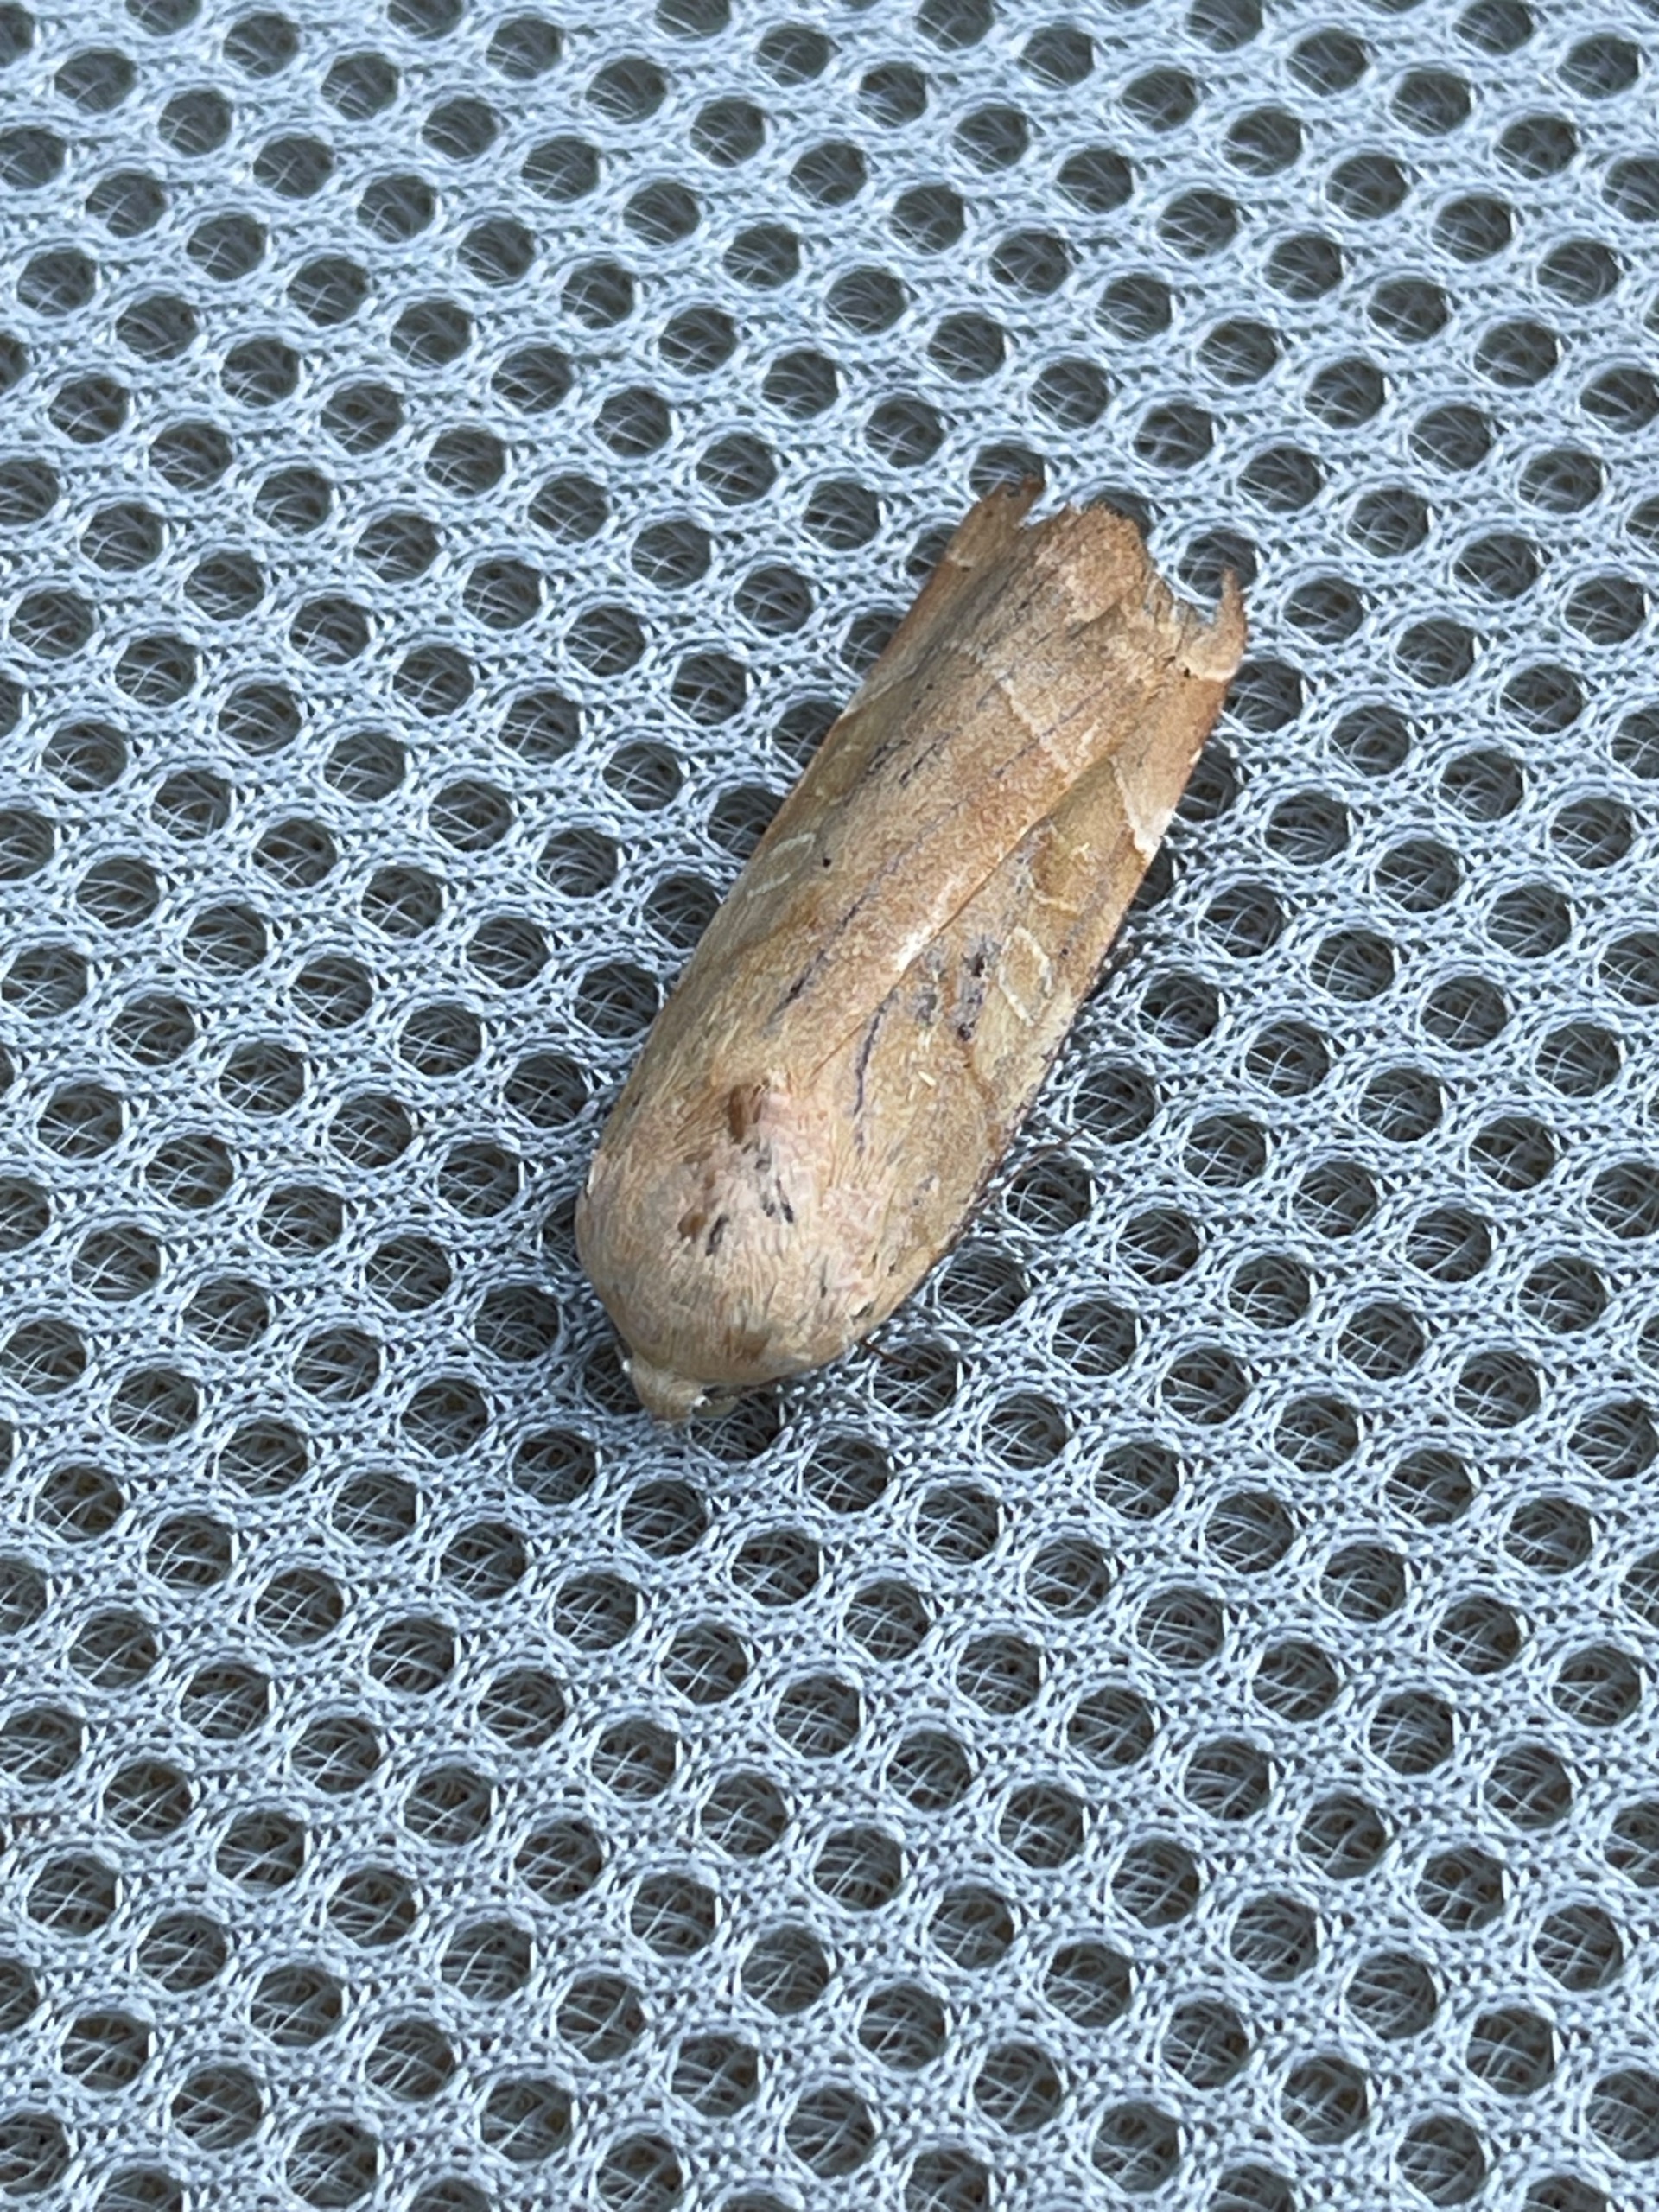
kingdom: Animalia
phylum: Arthropoda
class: Insecta
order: Lepidoptera
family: Noctuidae
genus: Noctua
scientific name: Noctua fimbriata
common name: Gul båndugle
